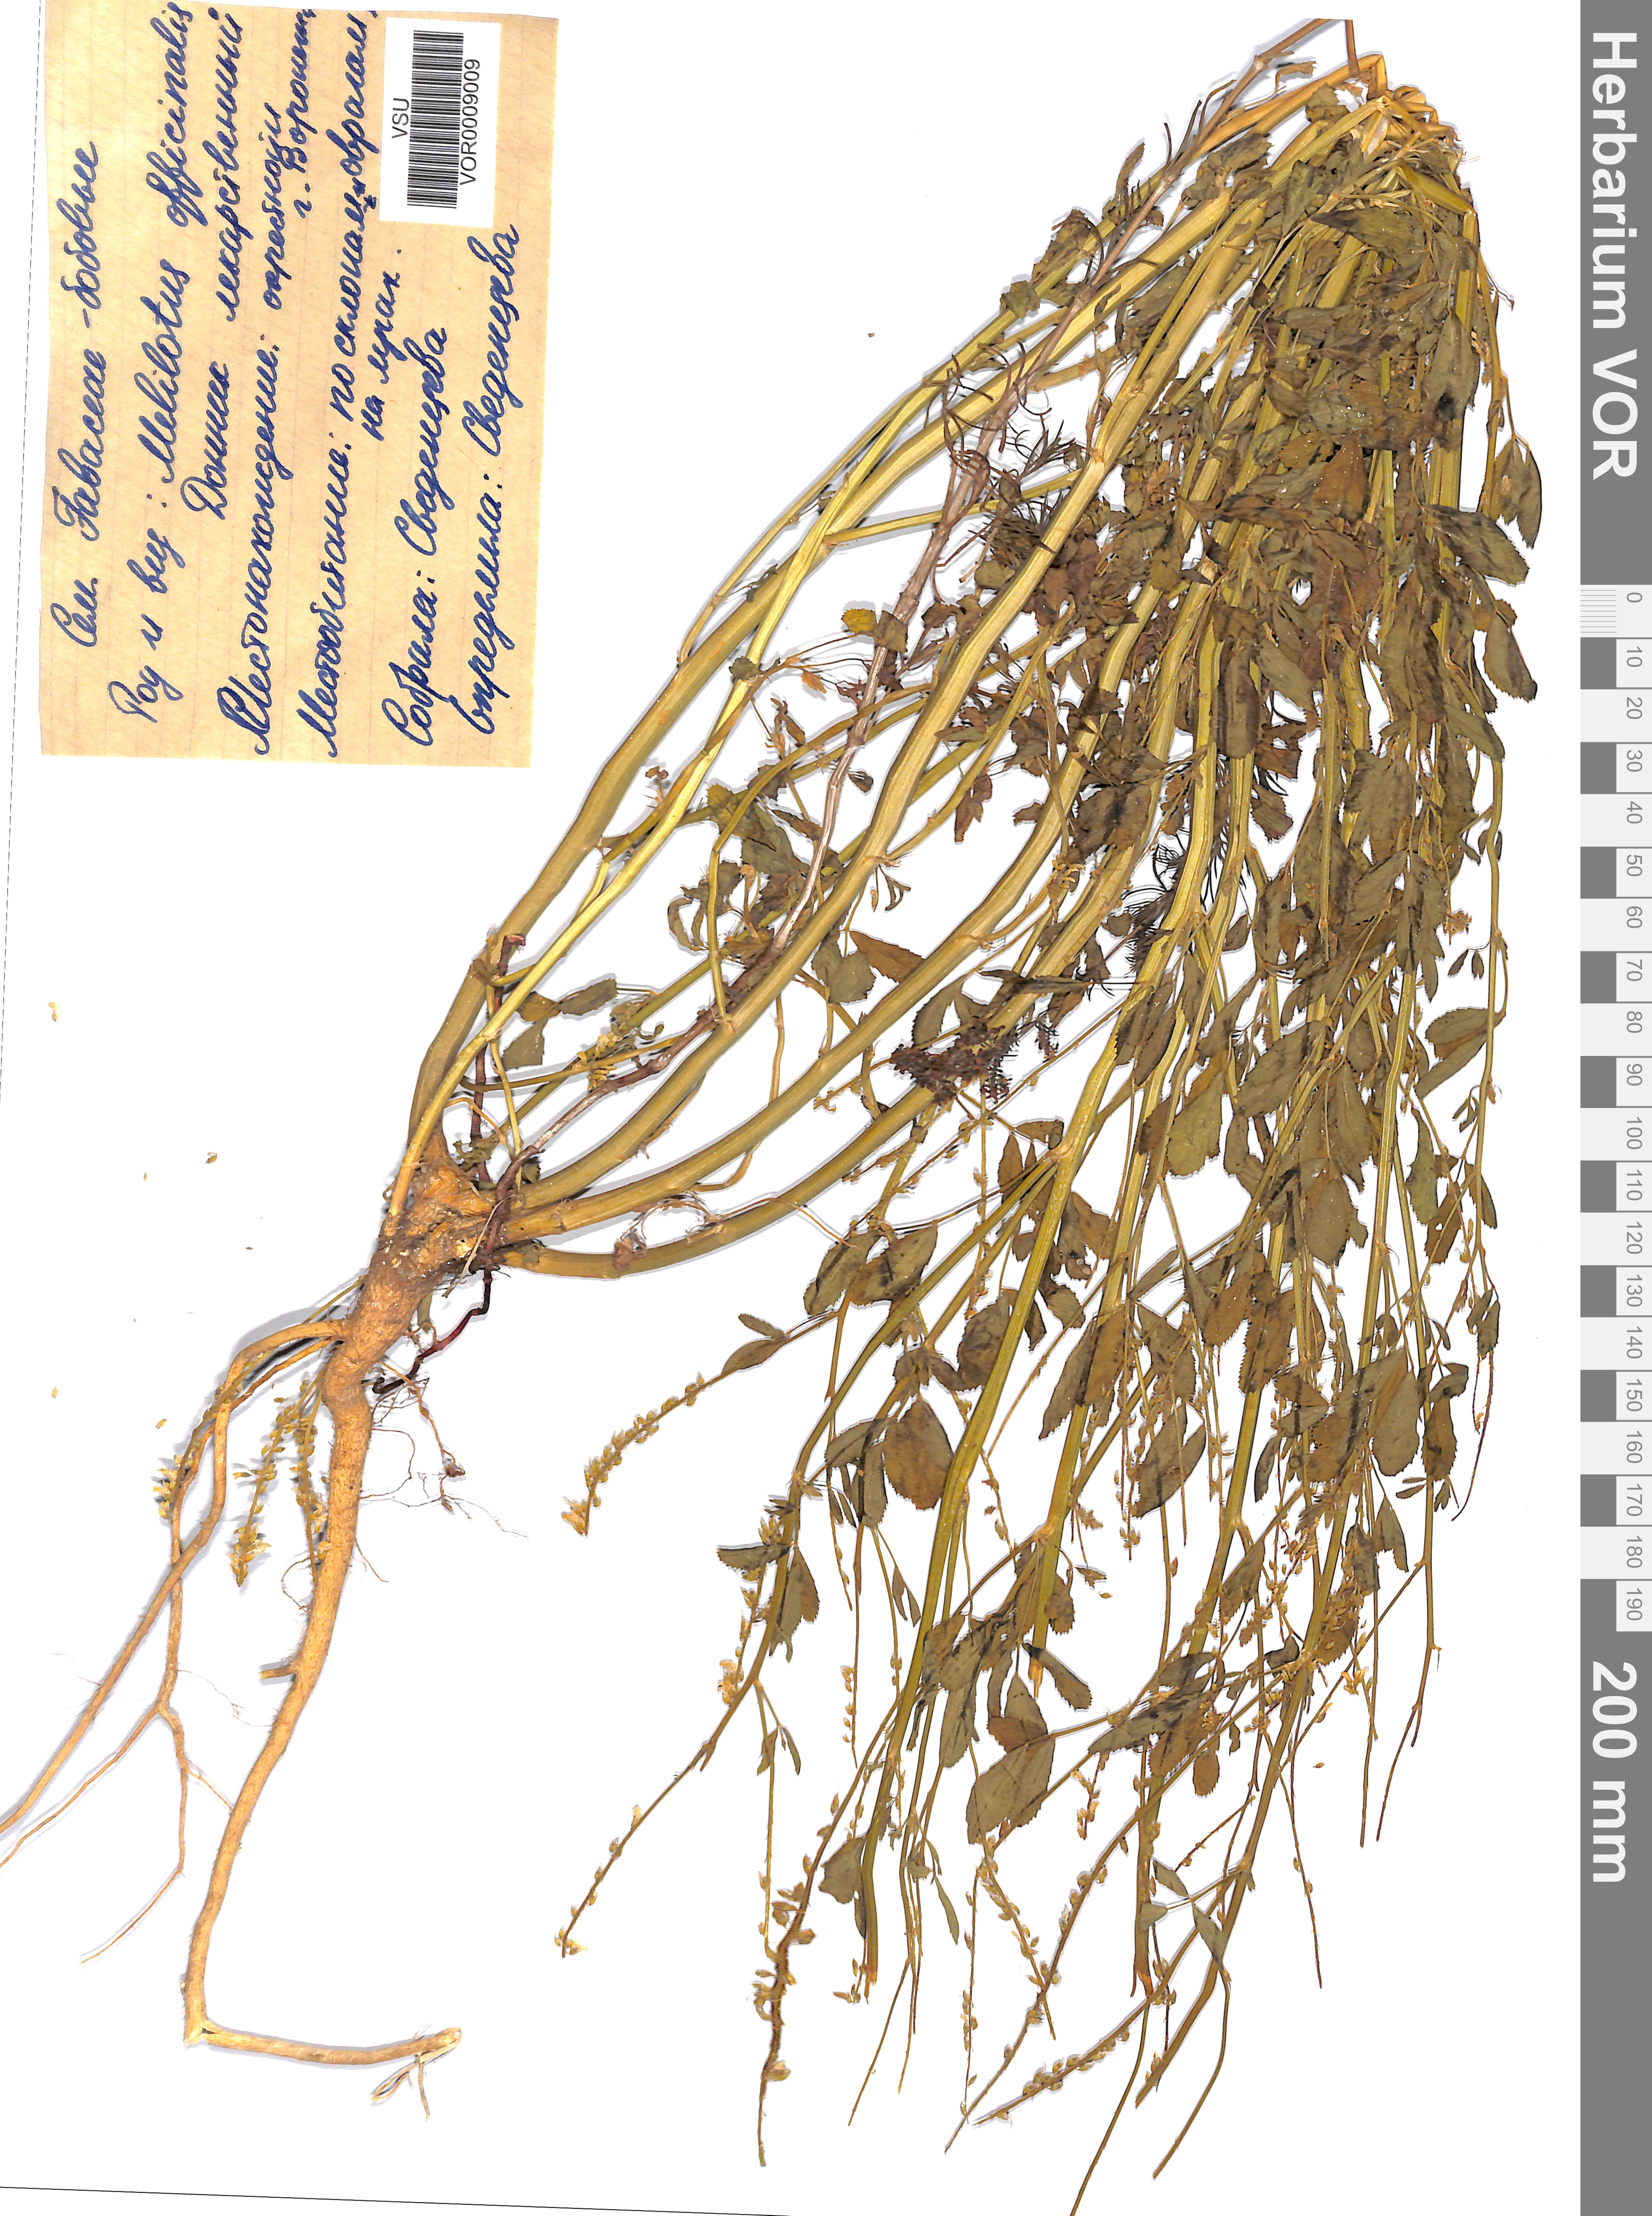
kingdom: Plantae
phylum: Tracheophyta
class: Magnoliopsida
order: Fabales
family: Fabaceae
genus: Melilotus
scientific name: Melilotus officinalis
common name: Sweetclover
